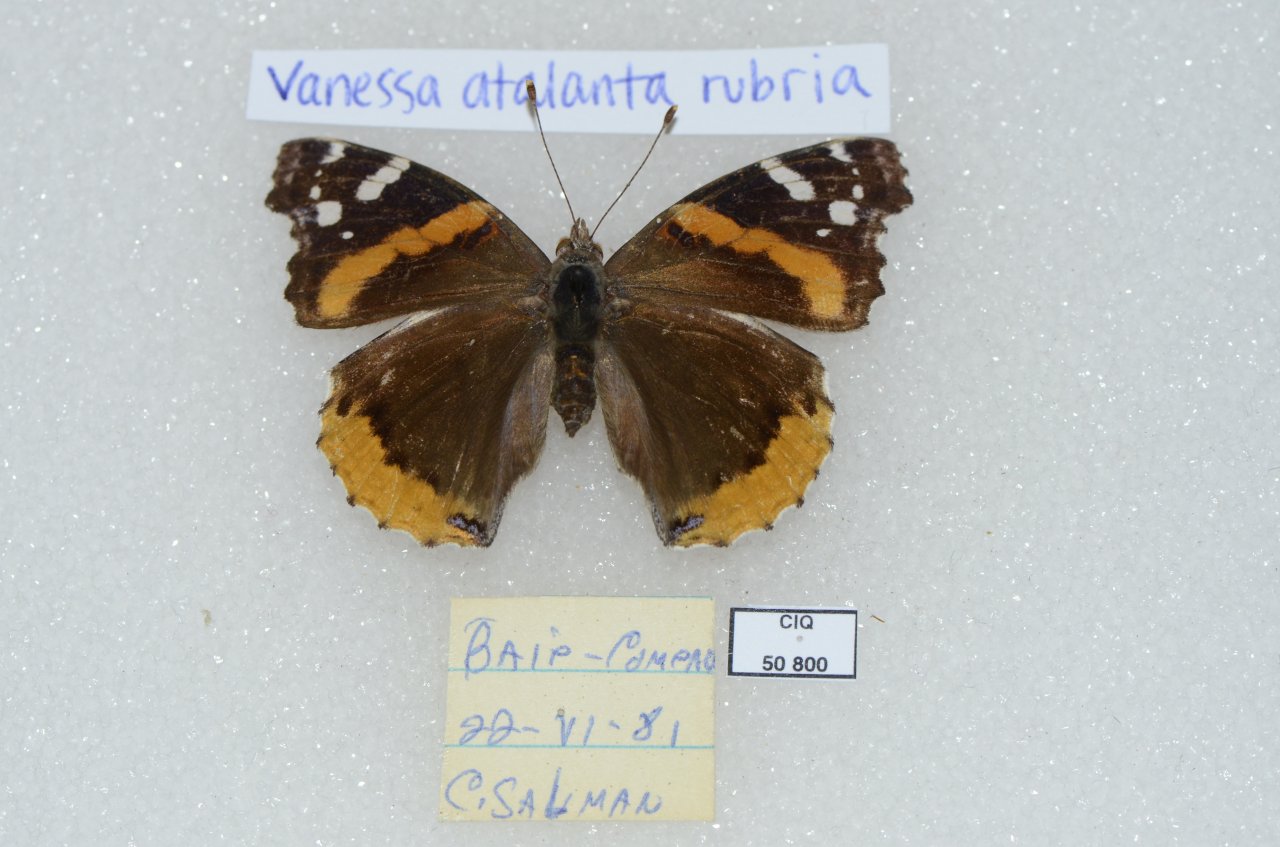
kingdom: Animalia
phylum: Arthropoda
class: Insecta
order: Lepidoptera
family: Nymphalidae
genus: Vanessa
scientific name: Vanessa atalanta
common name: Red Admiral
